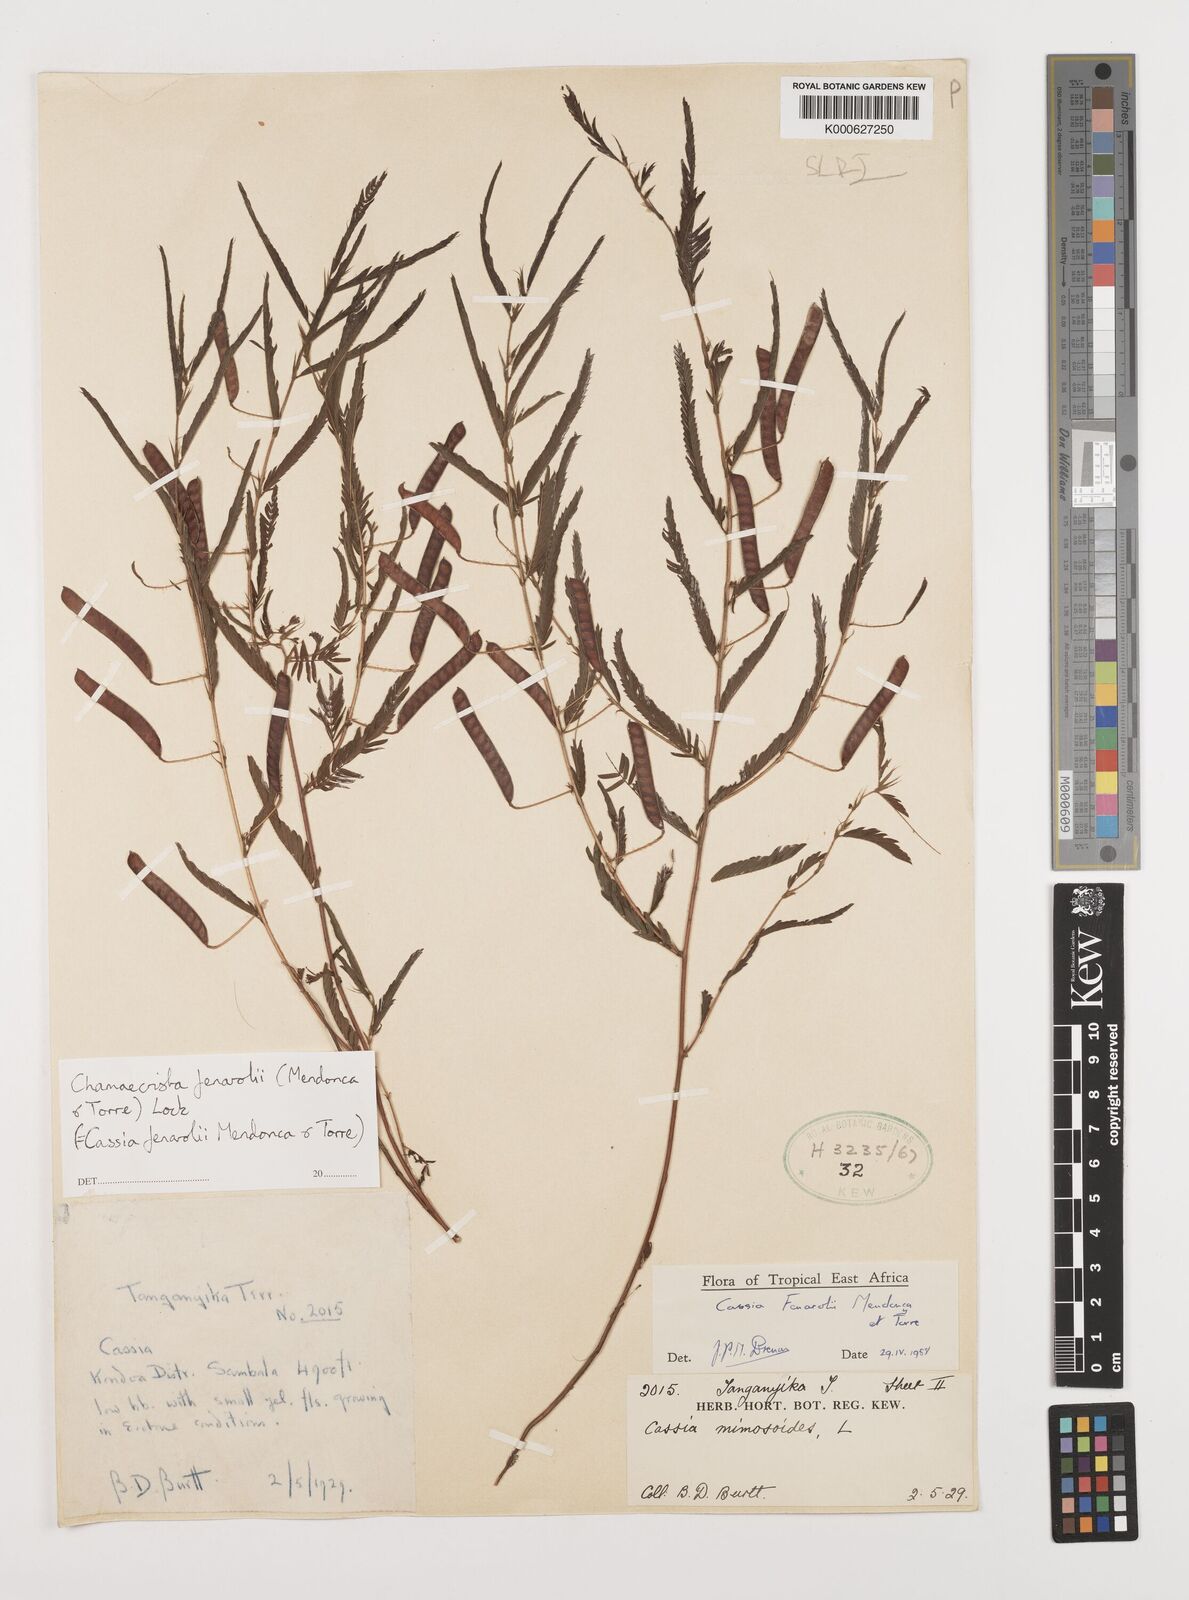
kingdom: Plantae
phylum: Tracheophyta
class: Magnoliopsida
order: Fabales
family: Fabaceae
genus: Chamaecrista
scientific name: Chamaecrista fenarolii
